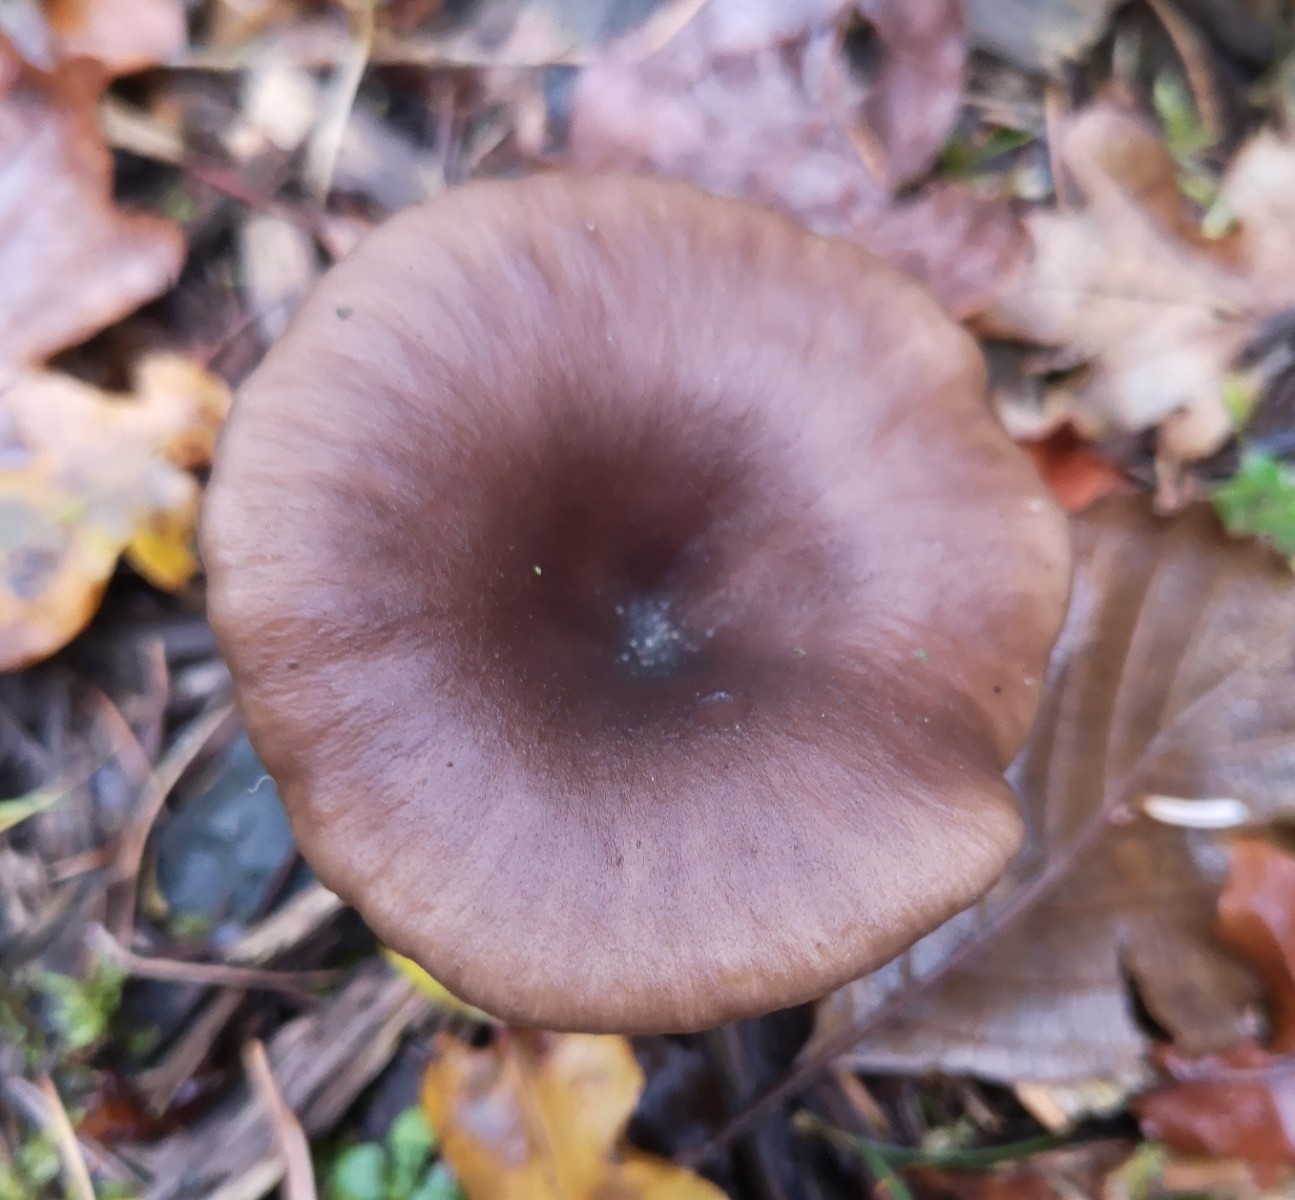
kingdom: Fungi
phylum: Basidiomycota
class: Agaricomycetes
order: Agaricales
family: Pseudoclitocybaceae
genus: Pseudoclitocybe
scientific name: Pseudoclitocybe cyathiformis
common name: almindelig bægertragthat
